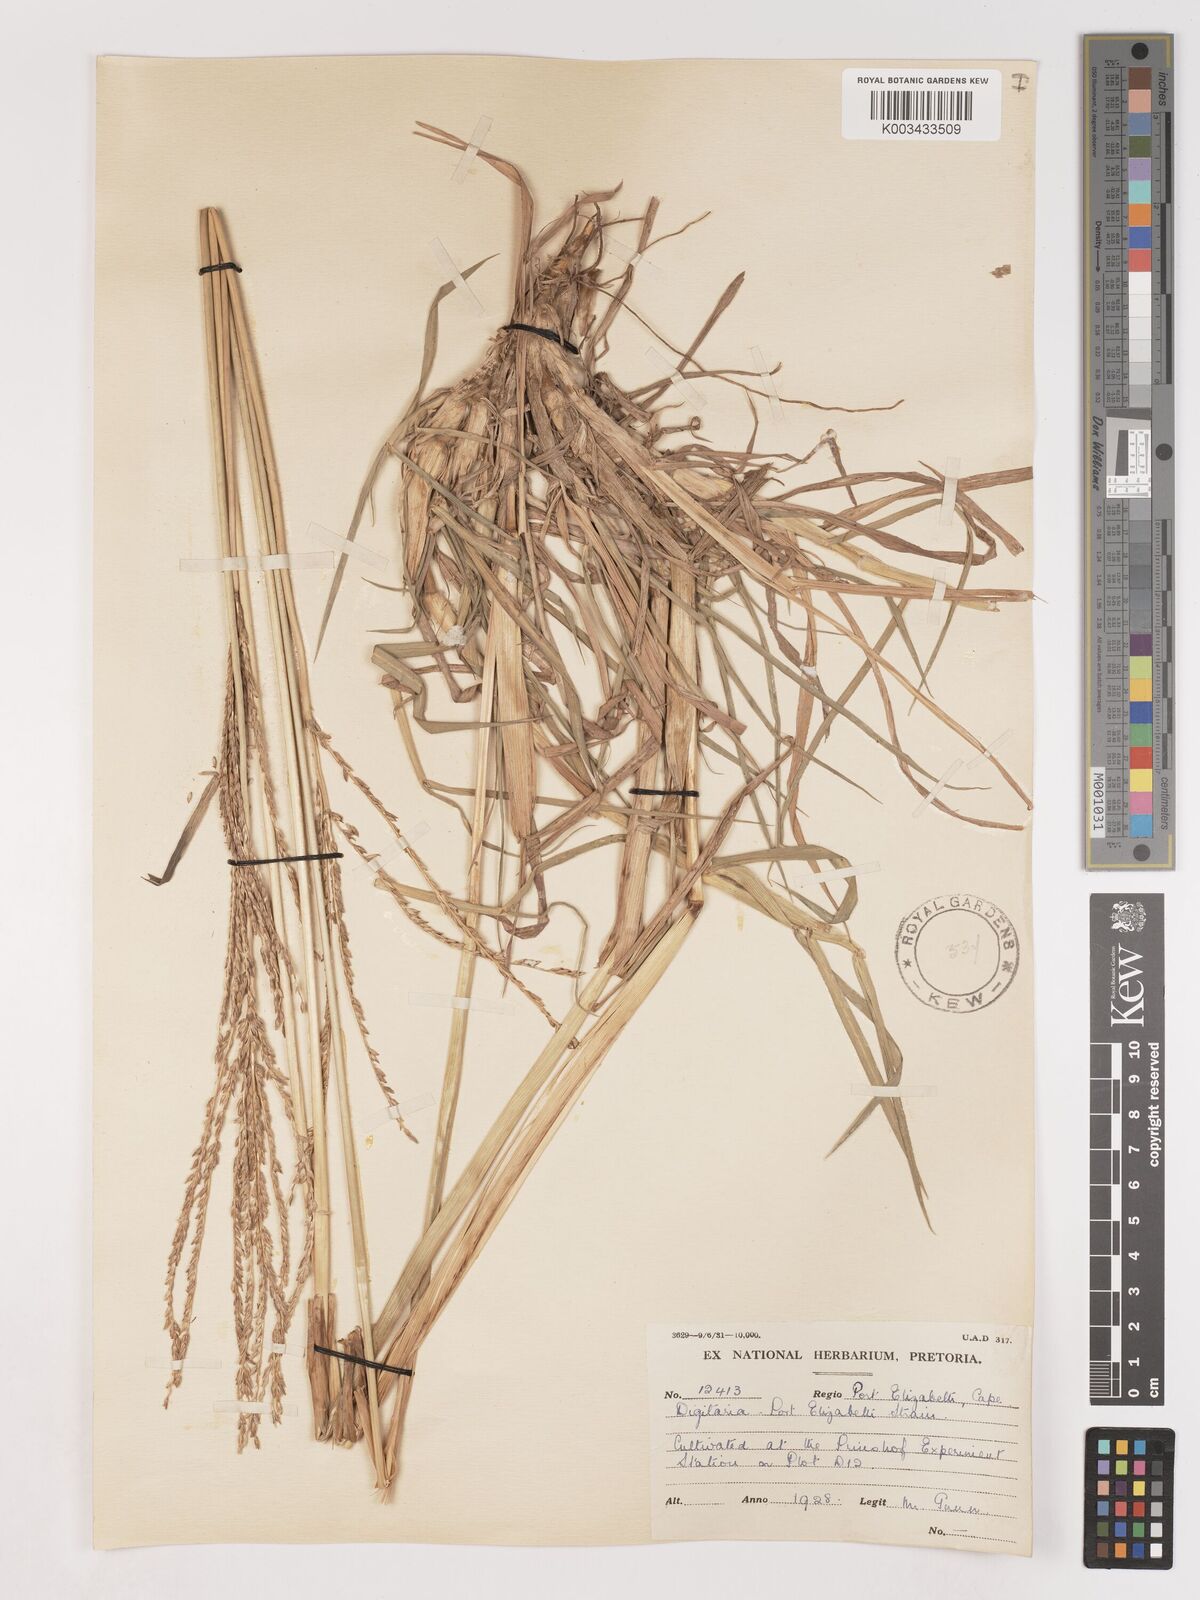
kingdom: Plantae
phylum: Tracheophyta
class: Liliopsida
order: Poales
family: Poaceae
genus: Digitaria
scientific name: Digitaria eriantha
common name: Digitgrass
